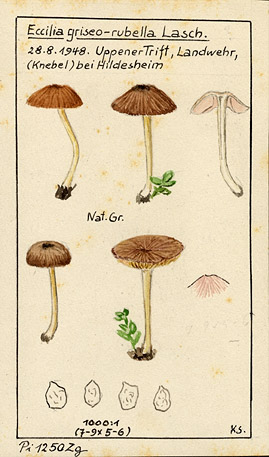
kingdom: Fungi
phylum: Basidiomycota
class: Agaricomycetes
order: Agaricales
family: Entolomataceae
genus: Entoloma
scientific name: Entoloma lividocyanulum
